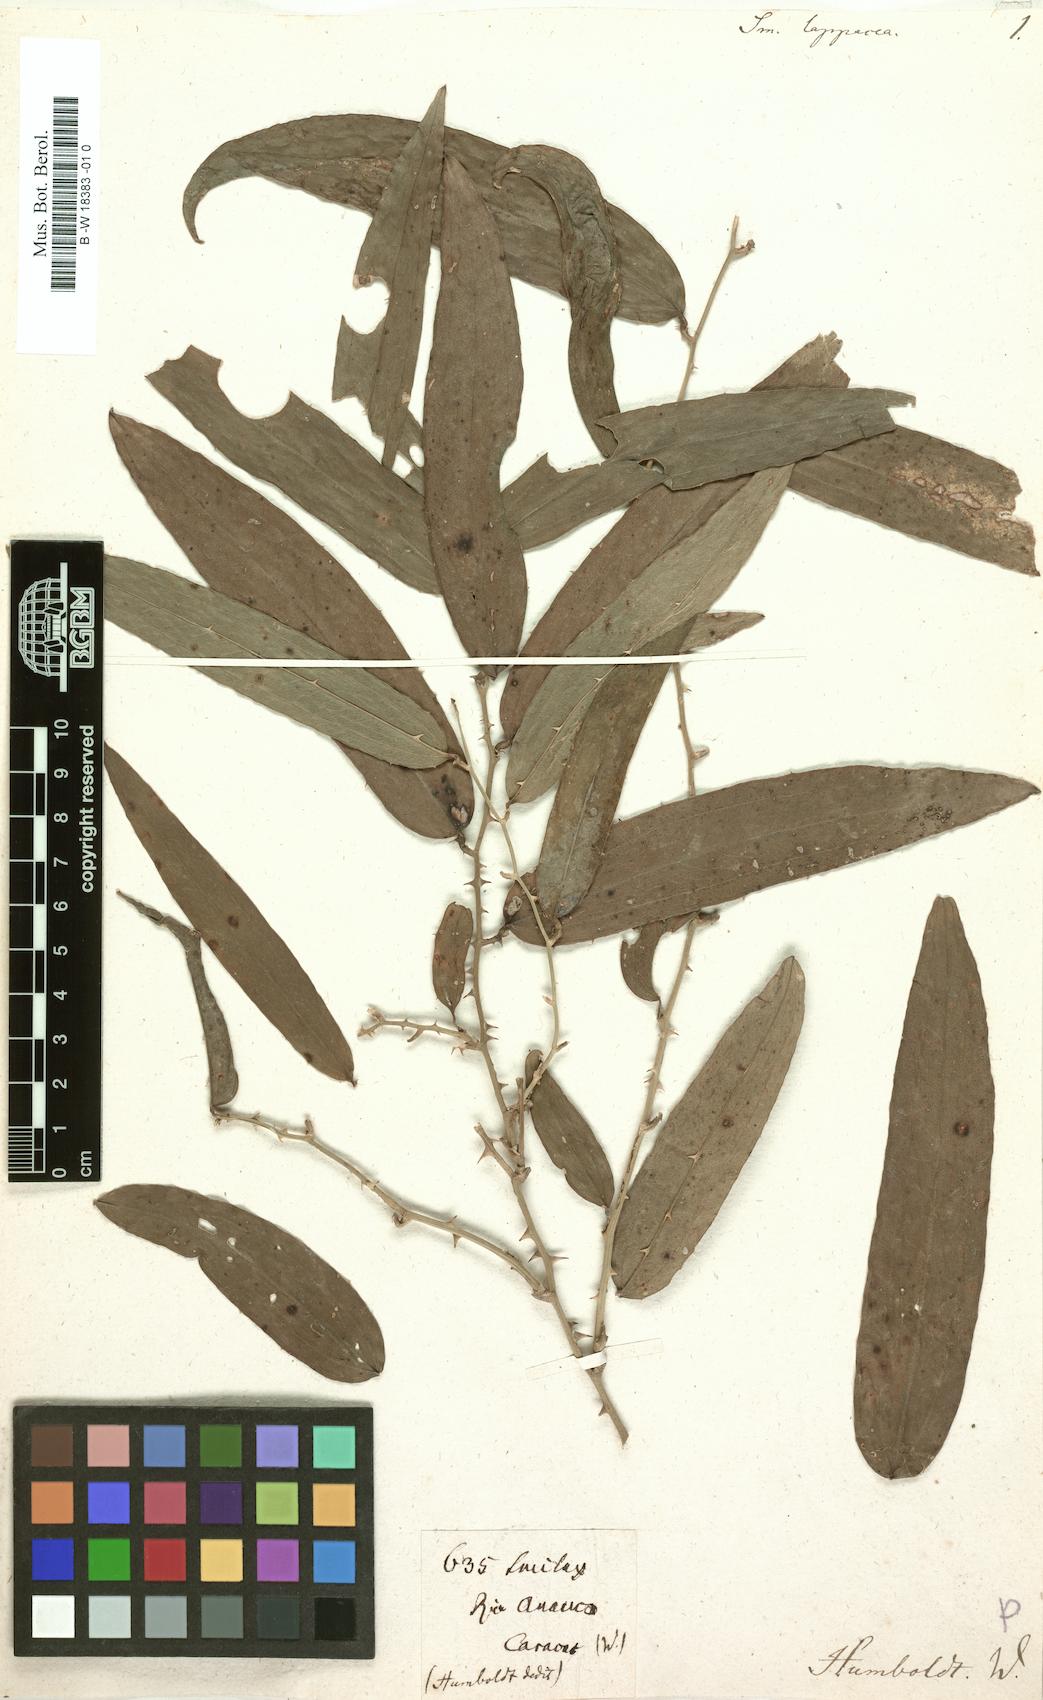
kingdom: Plantae
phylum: Tracheophyta
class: Liliopsida
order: Liliales
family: Smilacaceae
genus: Smilax
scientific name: Smilax lappacea
